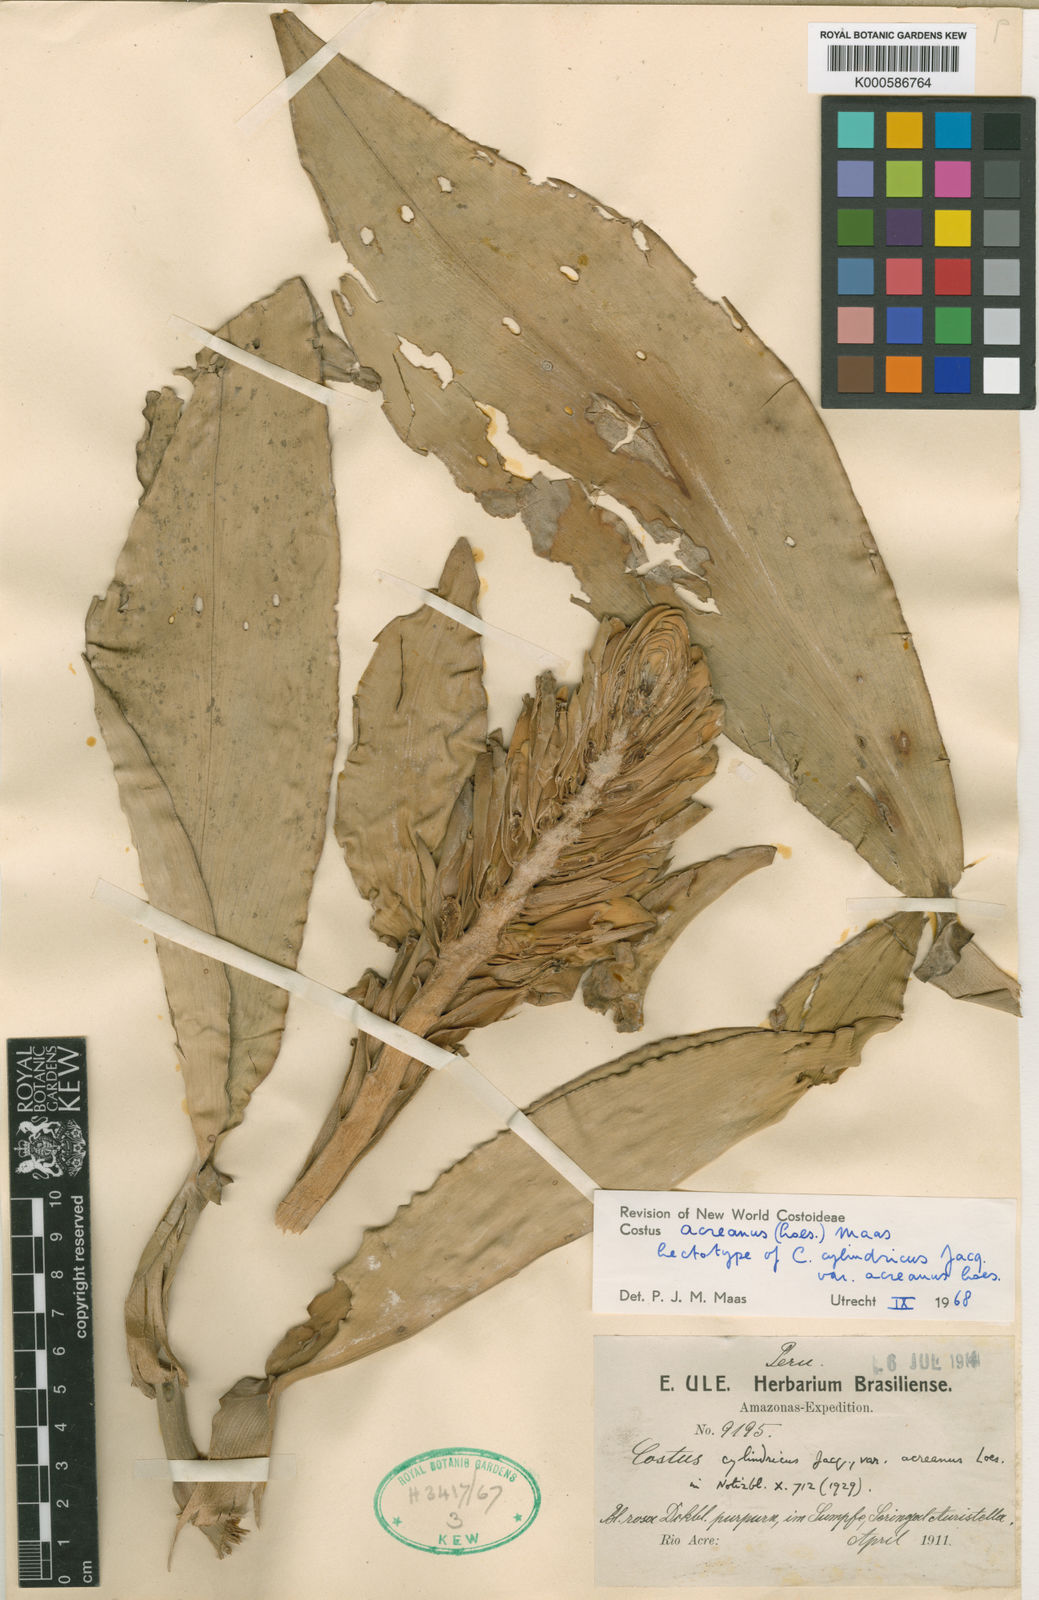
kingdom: Plantae
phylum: Tracheophyta
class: Liliopsida
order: Zingiberales
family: Costaceae
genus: Costus
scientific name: Costus acreanus
